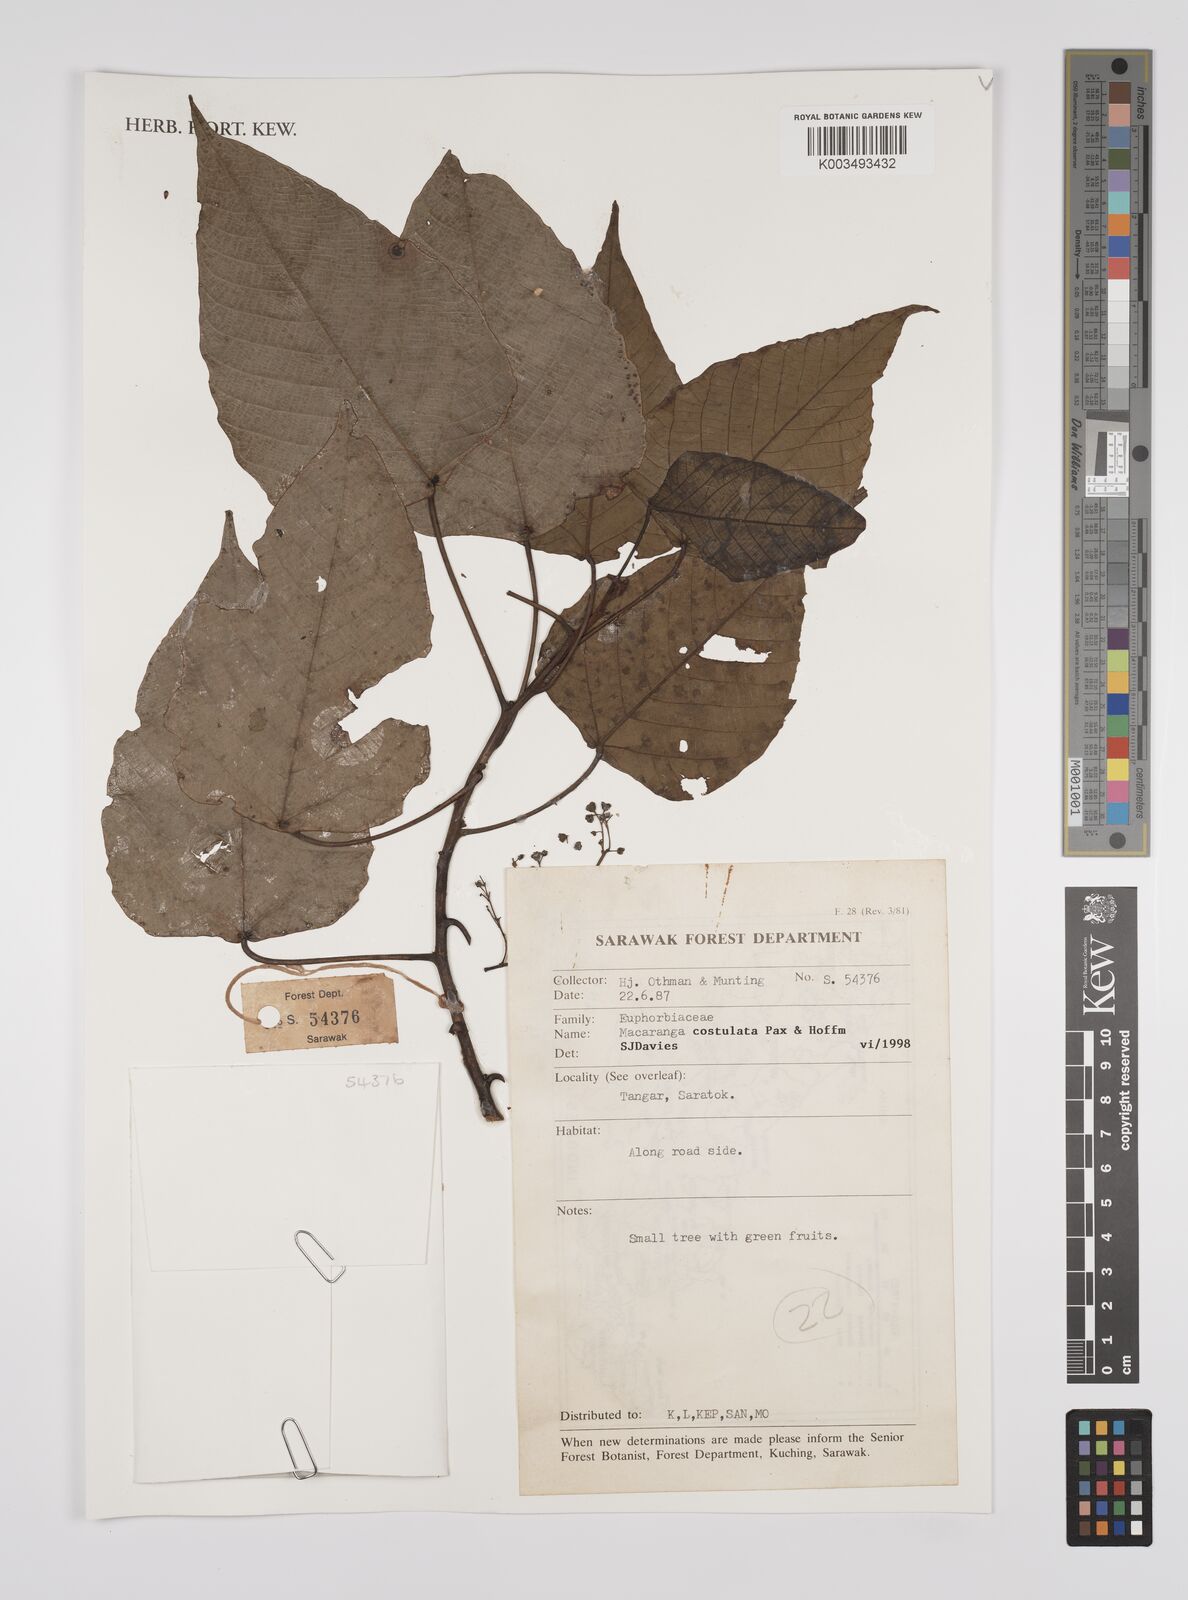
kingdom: Plantae
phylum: Tracheophyta
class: Magnoliopsida
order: Malpighiales
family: Euphorbiaceae
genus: Macaranga
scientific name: Macaranga costulata
